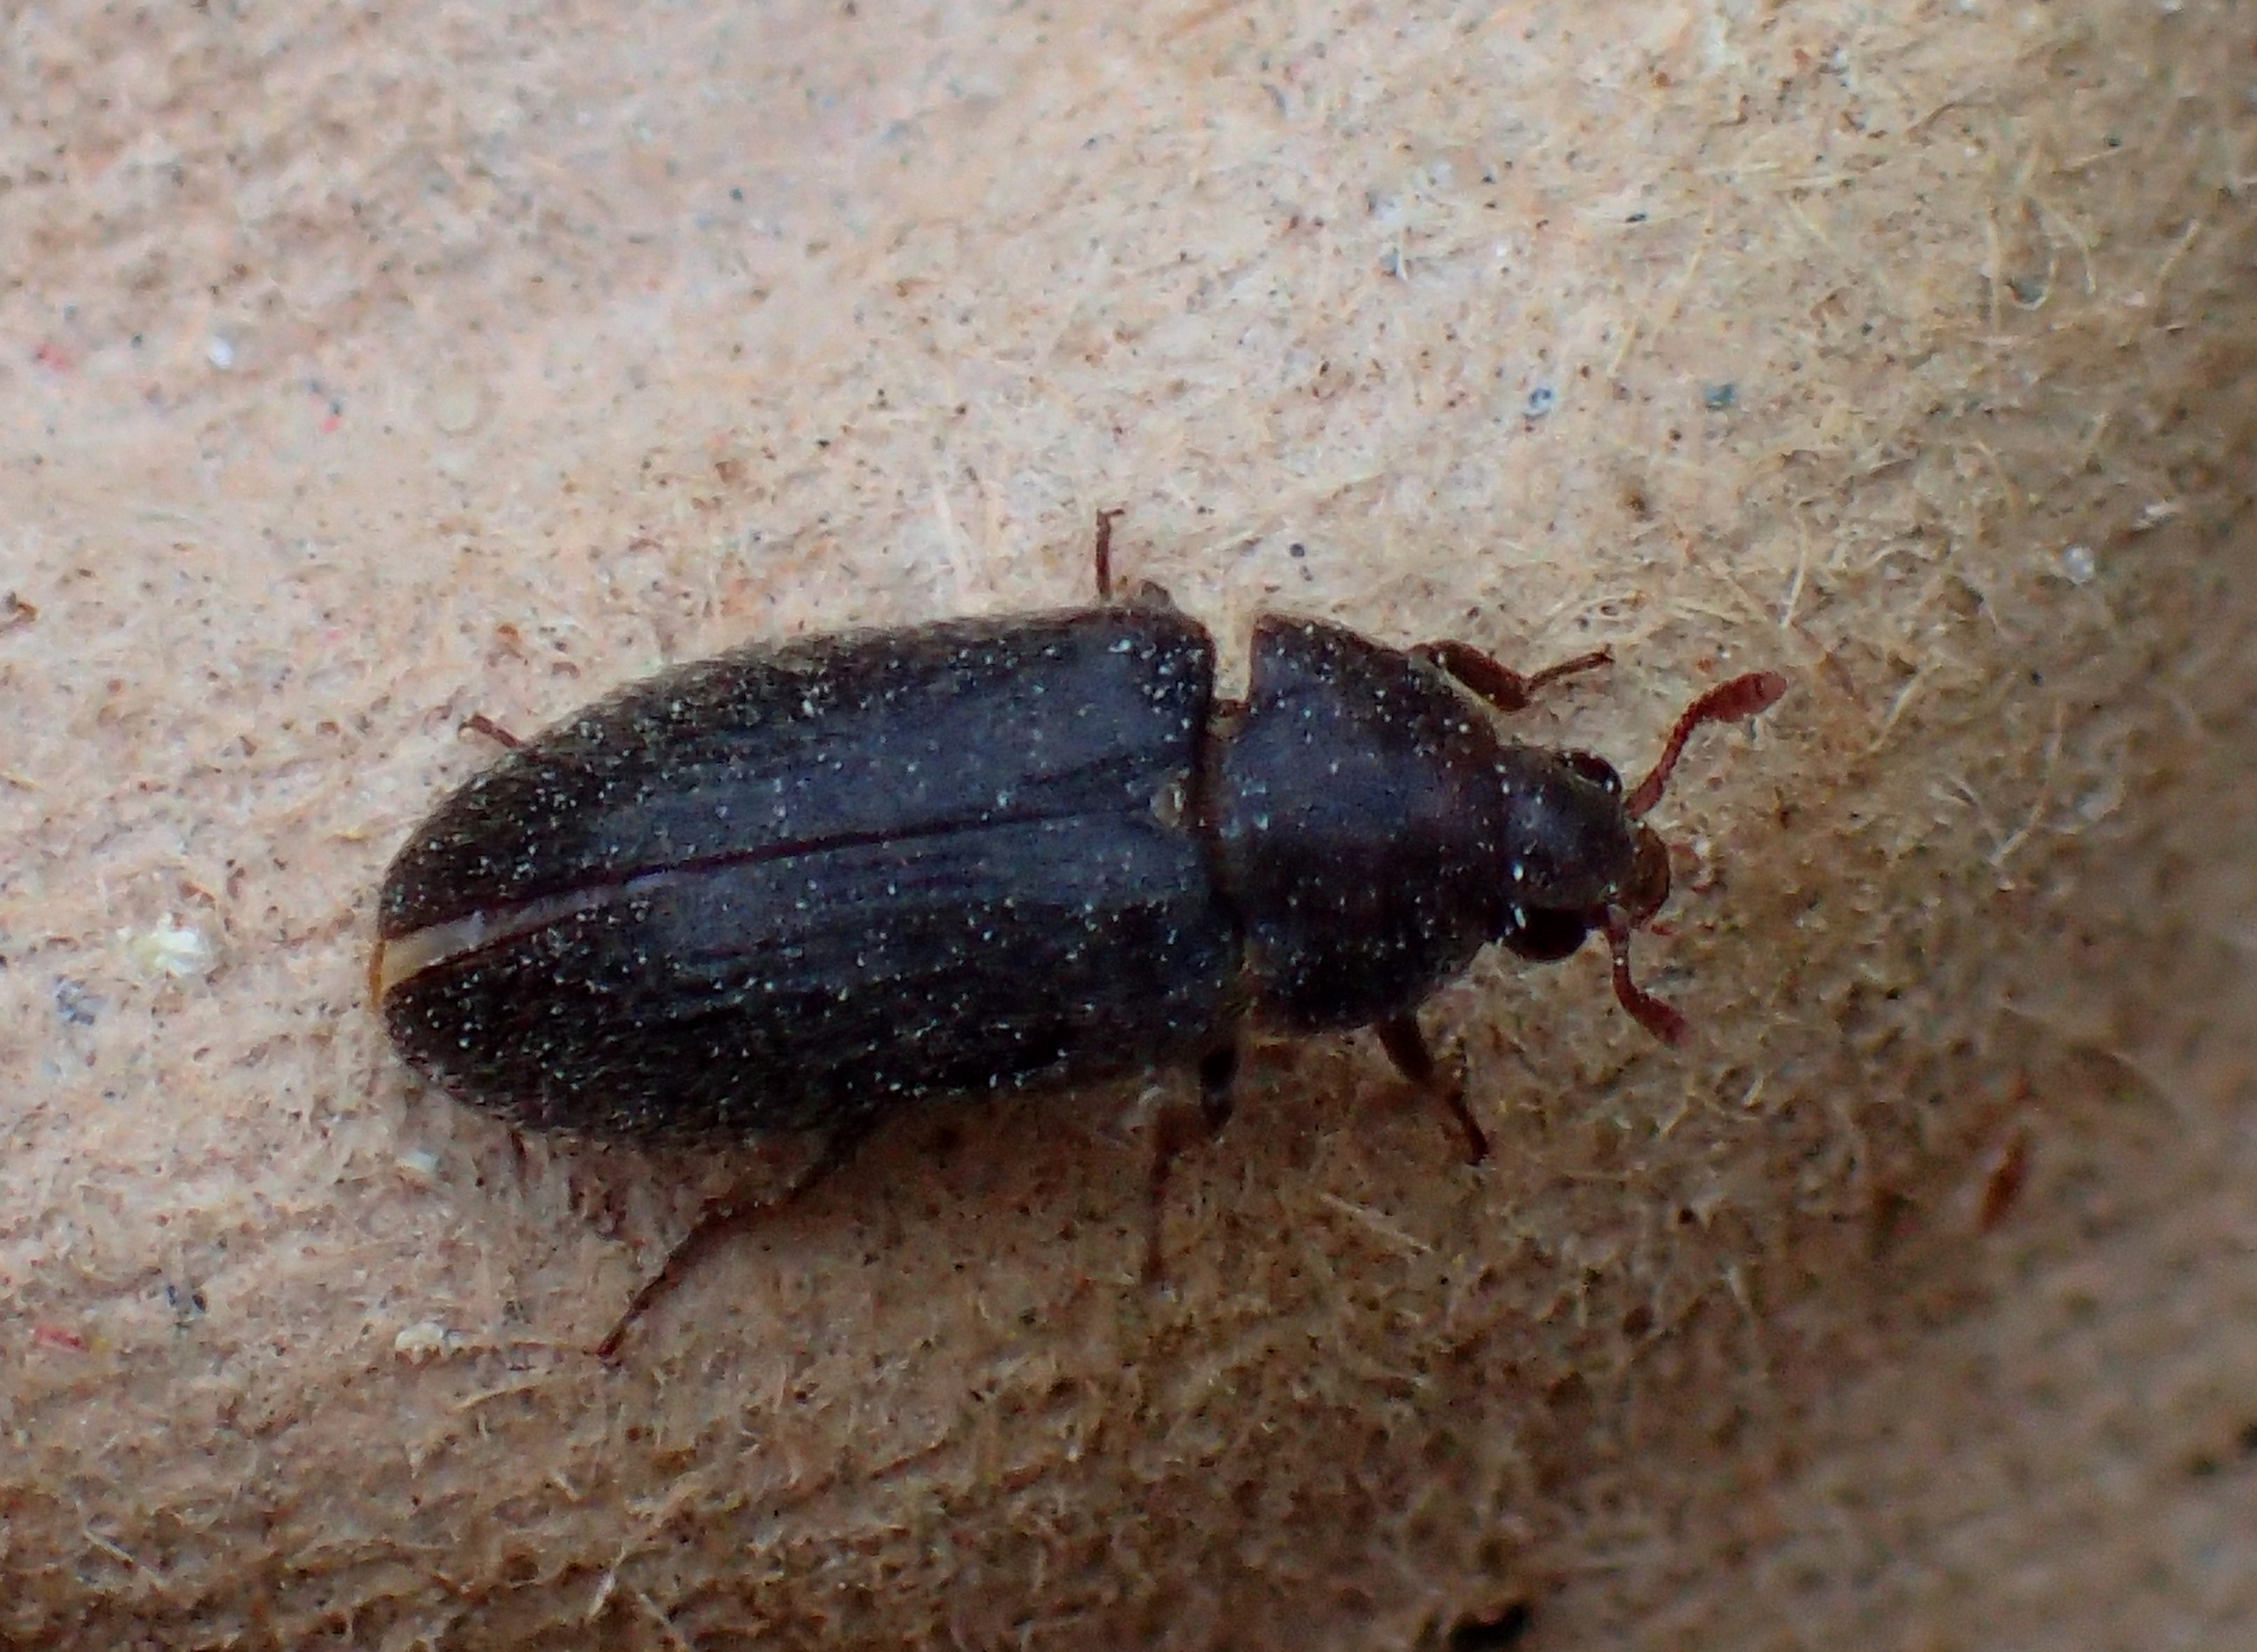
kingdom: Animalia
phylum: Arthropoda
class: Insecta
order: Coleoptera
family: Dermestidae
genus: Dermestes
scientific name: Dermestes haemorrhoidalis
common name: Husklanner
